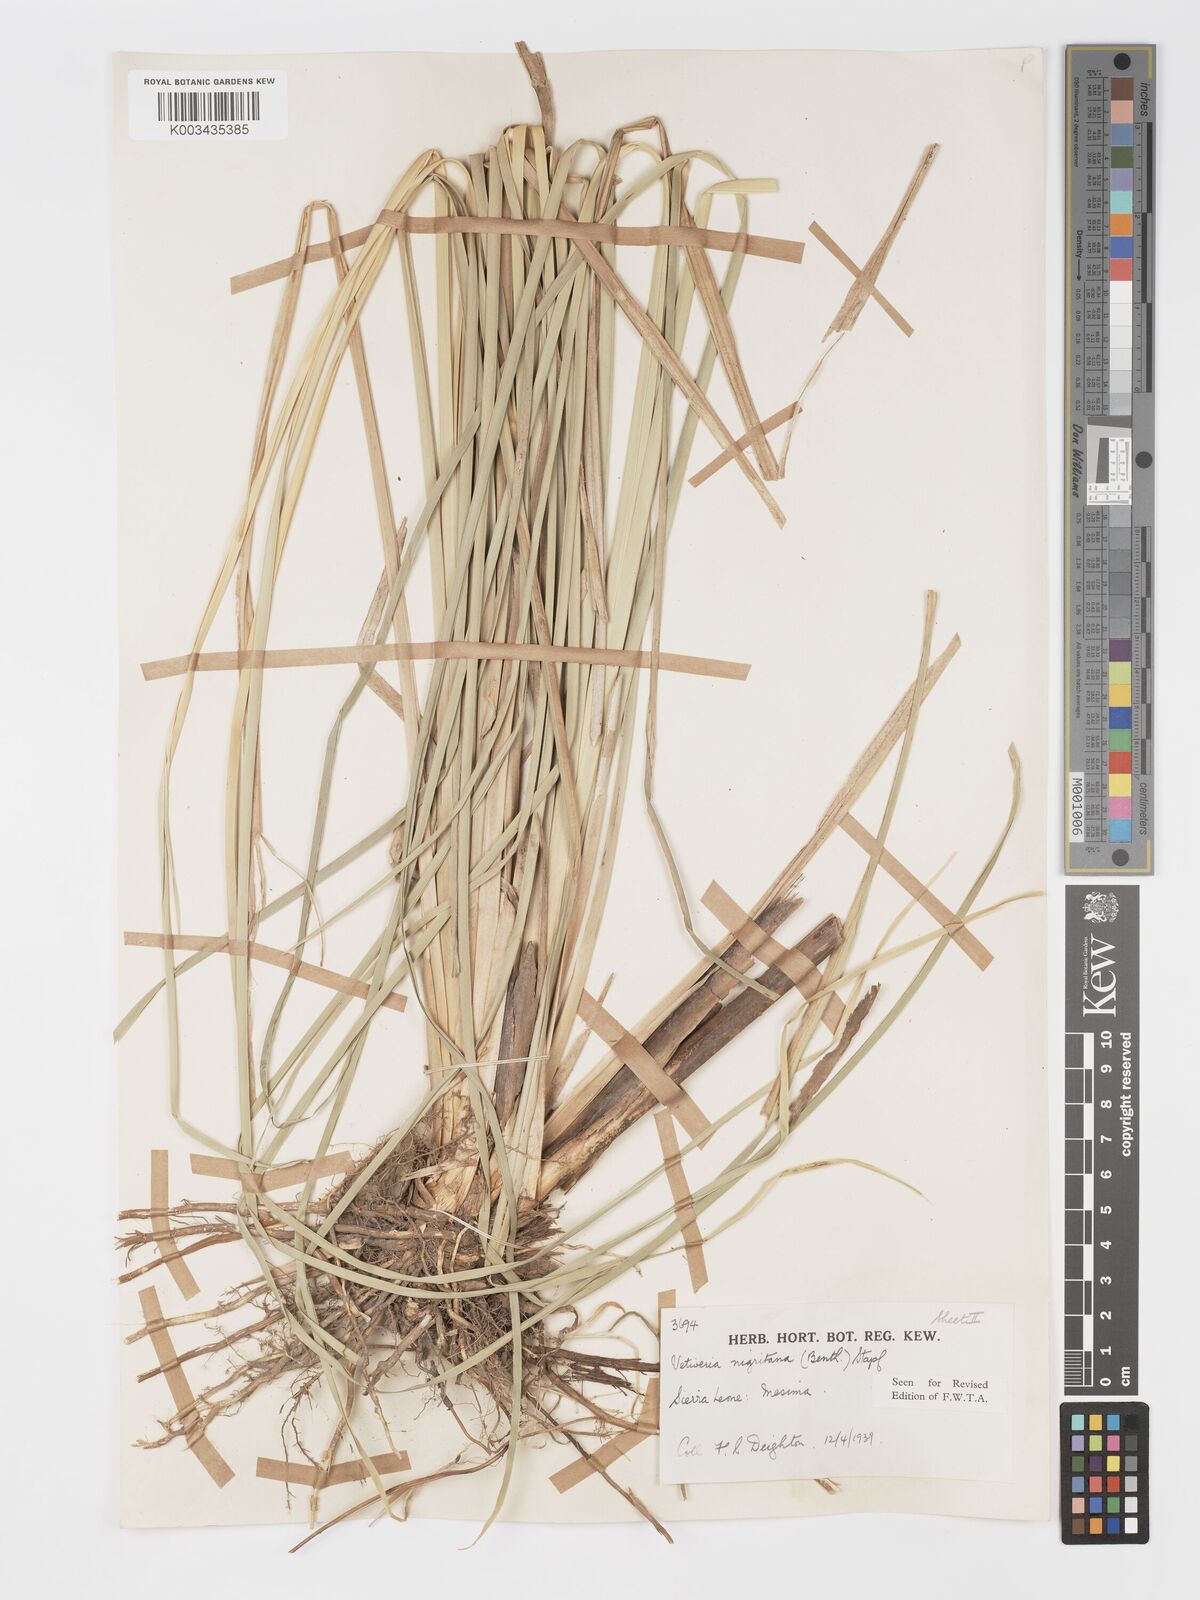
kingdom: Plantae
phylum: Tracheophyta
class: Liliopsida
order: Poales
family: Poaceae
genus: Chrysopogon
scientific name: Chrysopogon nigritanus
